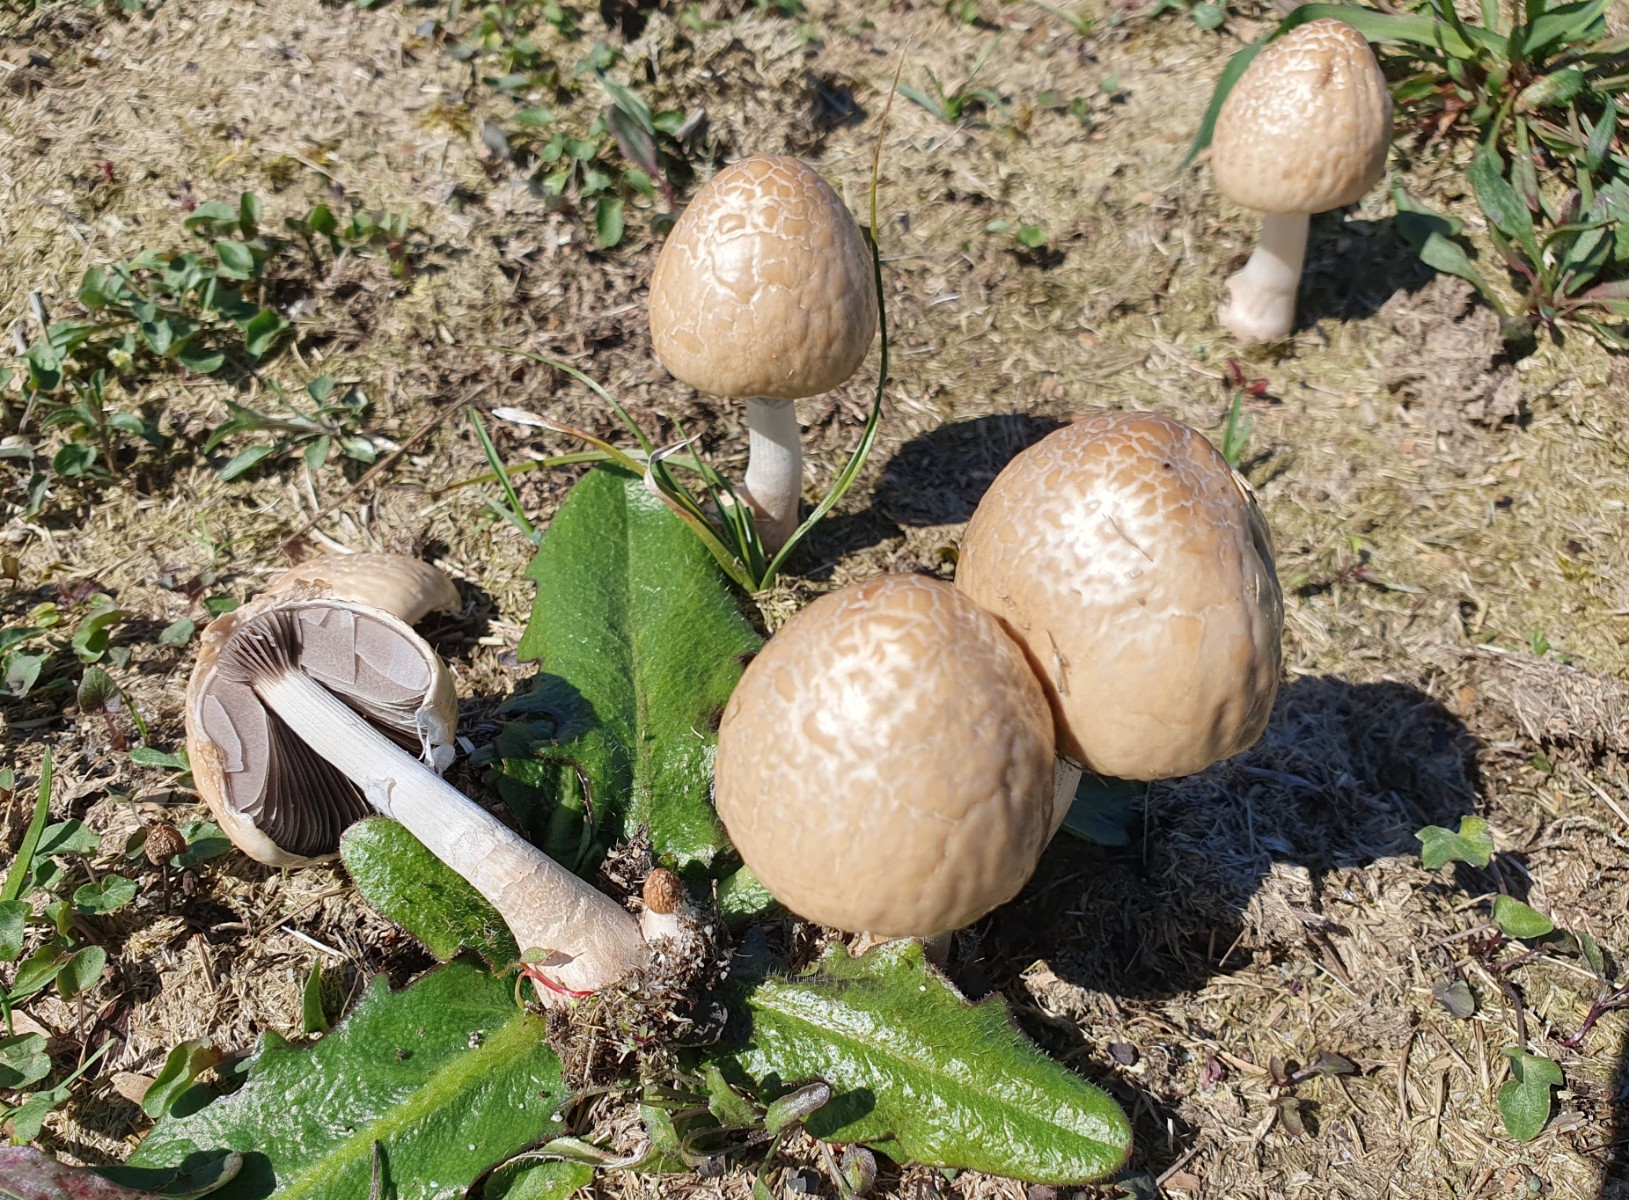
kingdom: Fungi
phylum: Basidiomycota
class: Agaricomycetes
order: Agaricales
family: Bolbitiaceae
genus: Panaeolus
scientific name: Panaeolus semiovatus
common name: ring-glanshat
